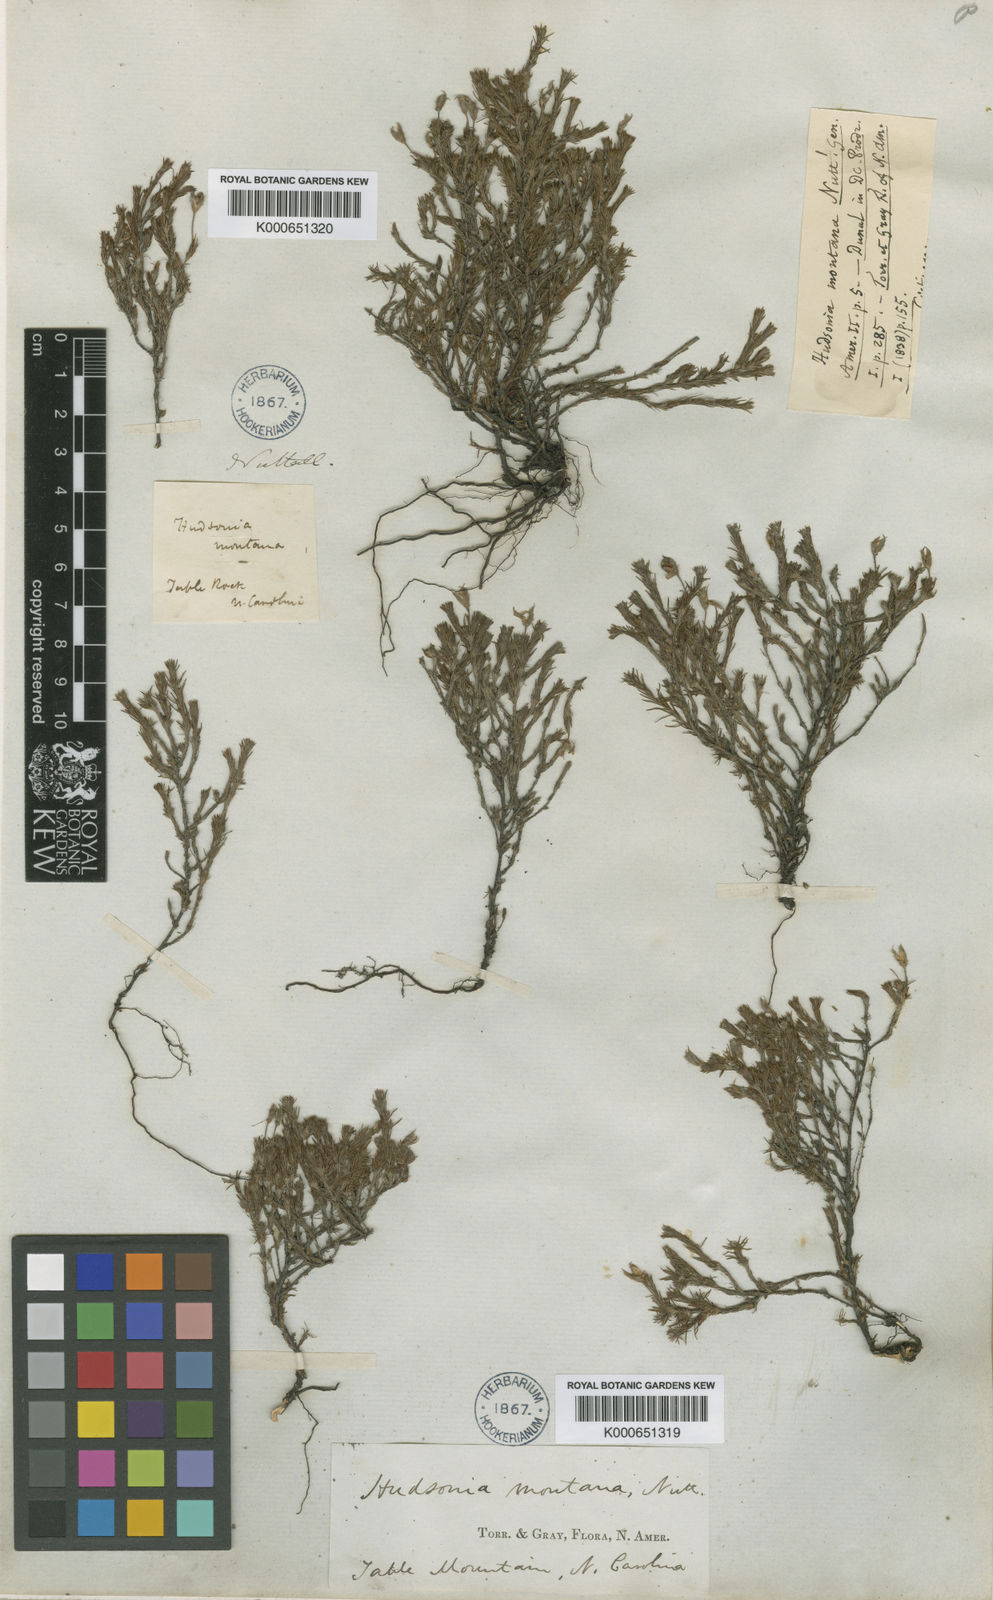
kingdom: Plantae
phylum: Tracheophyta
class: Magnoliopsida
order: Malvales
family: Cistaceae
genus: Hudsonia
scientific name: Hudsonia montana
